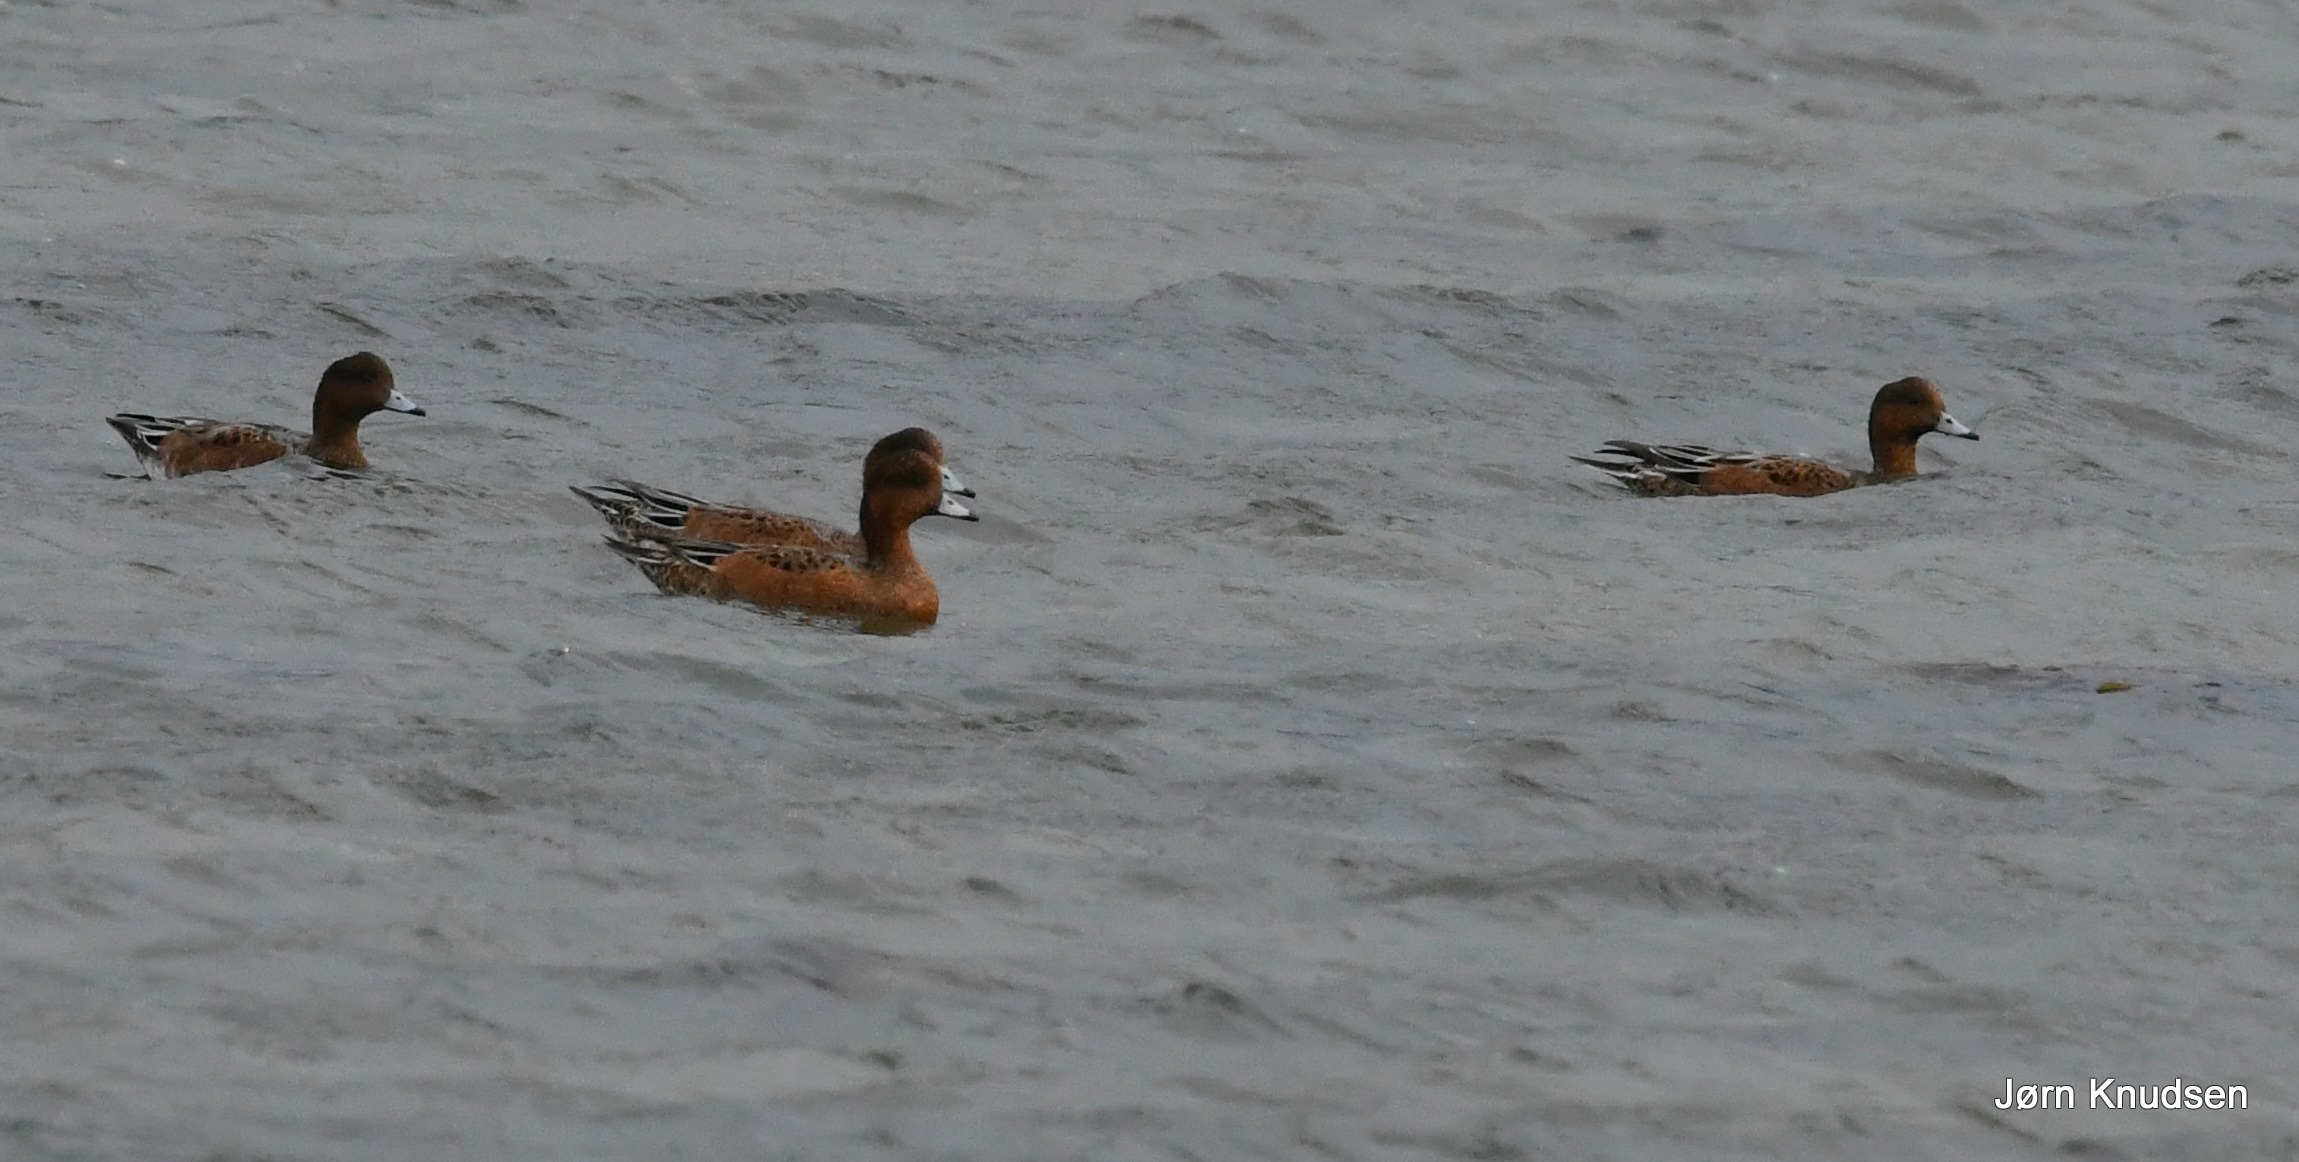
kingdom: Animalia
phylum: Chordata
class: Aves
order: Anseriformes
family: Anatidae
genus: Mareca
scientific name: Mareca penelope
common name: Pibeand
